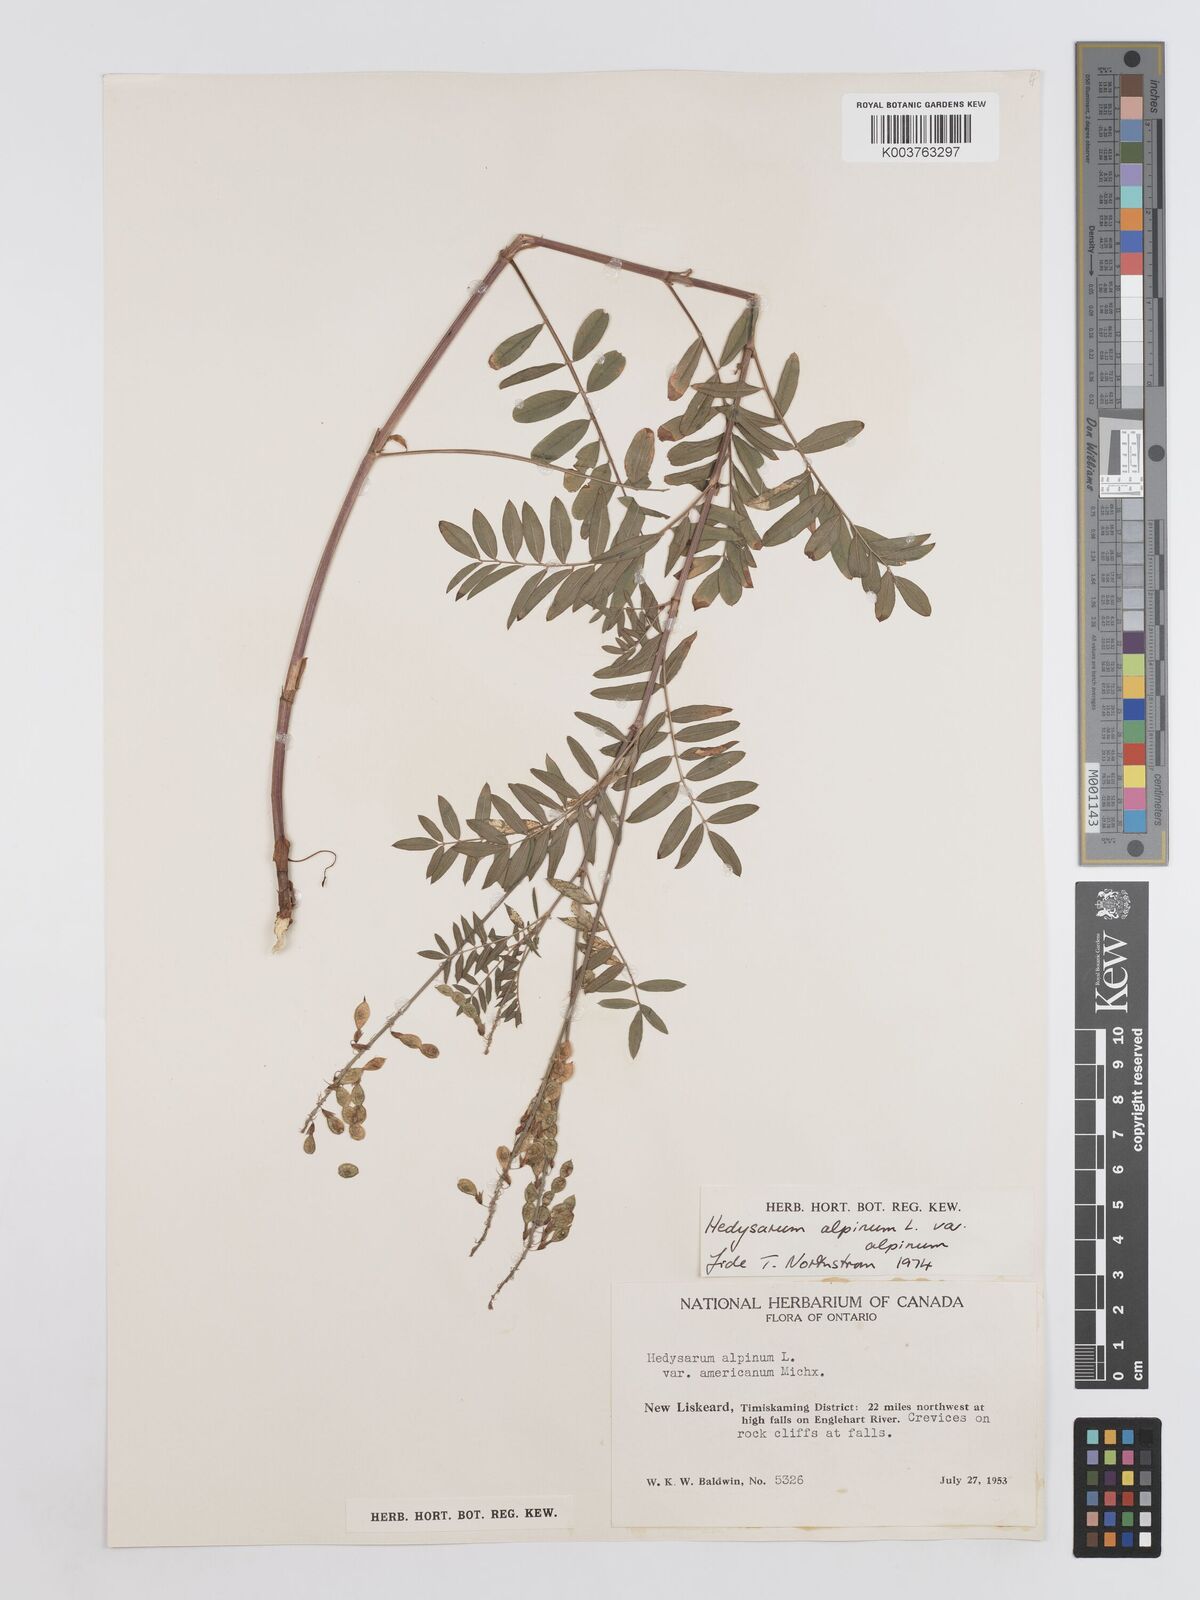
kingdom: Plantae
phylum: Tracheophyta
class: Magnoliopsida
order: Fabales
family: Fabaceae
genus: Hedysarum
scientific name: Hedysarum alpinum
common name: Alpine sweet-vetch
